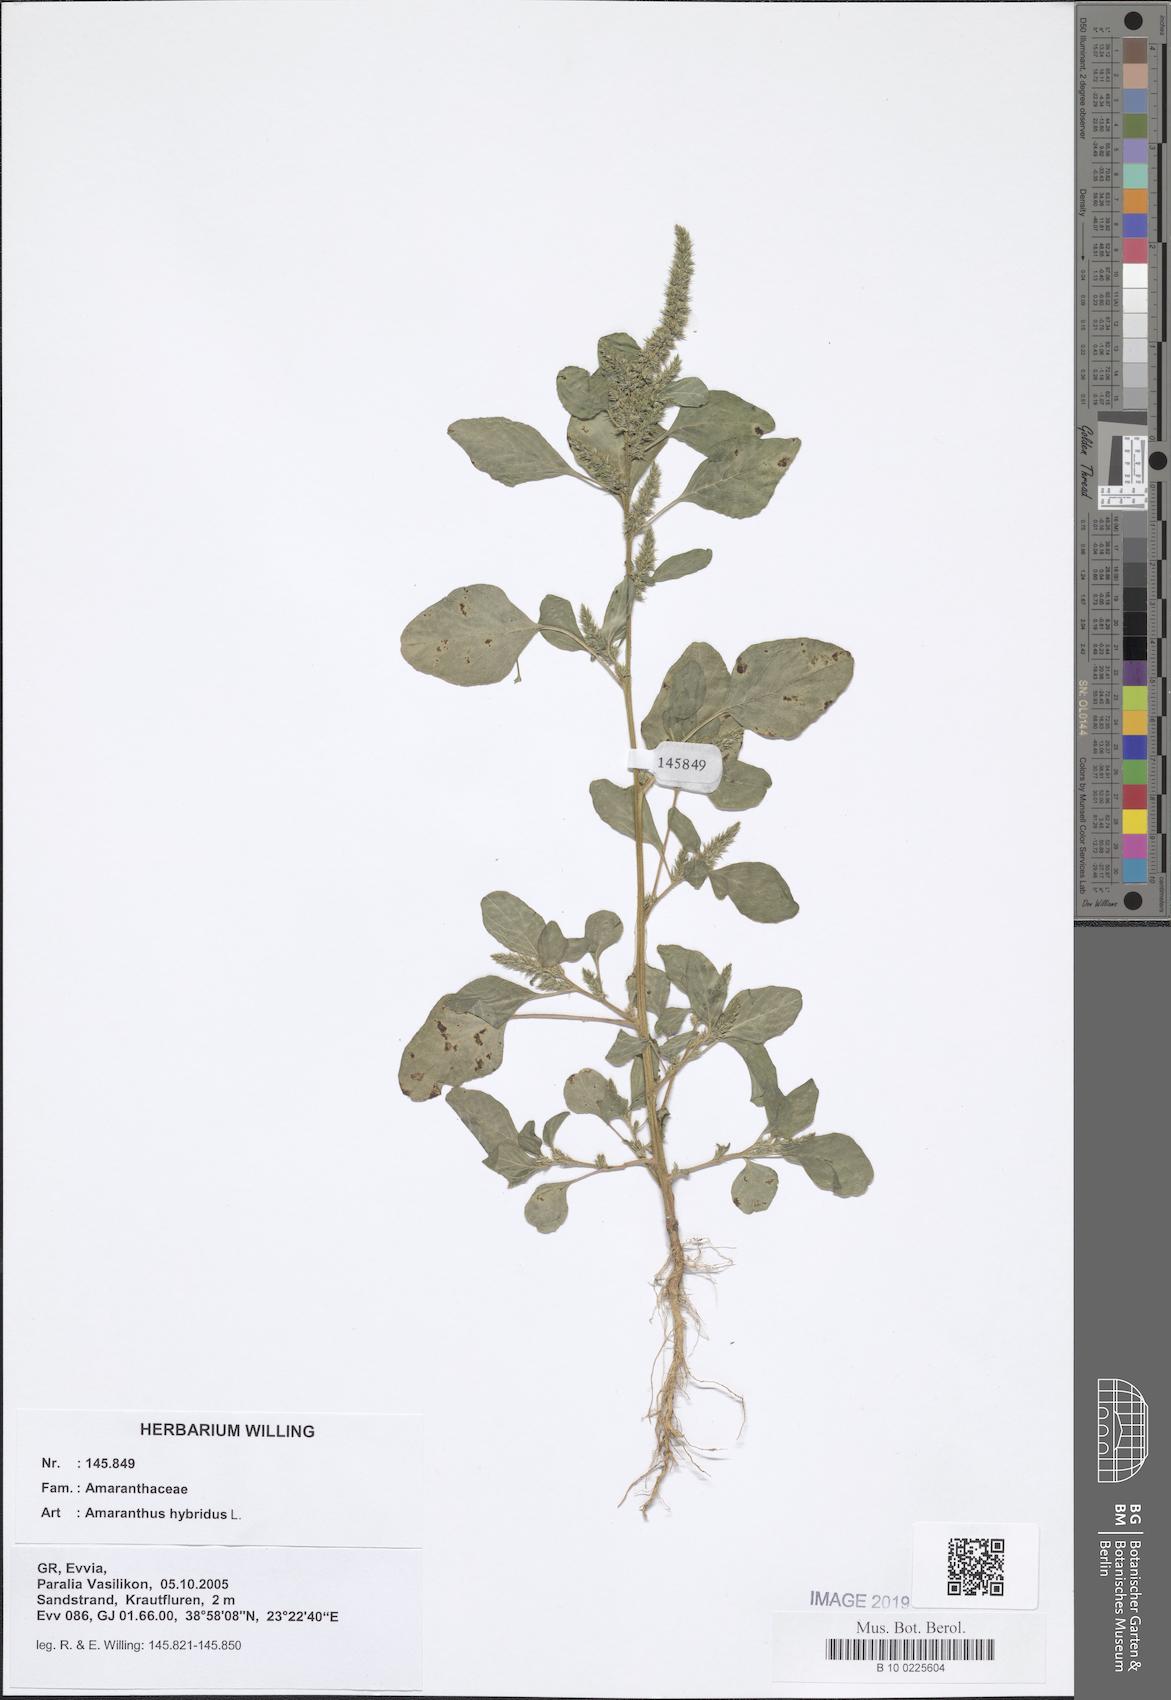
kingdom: Plantae
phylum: Tracheophyta
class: Magnoliopsida
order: Caryophyllales
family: Amaranthaceae
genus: Amaranthus
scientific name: Amaranthus hybridus
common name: Green amaranth
